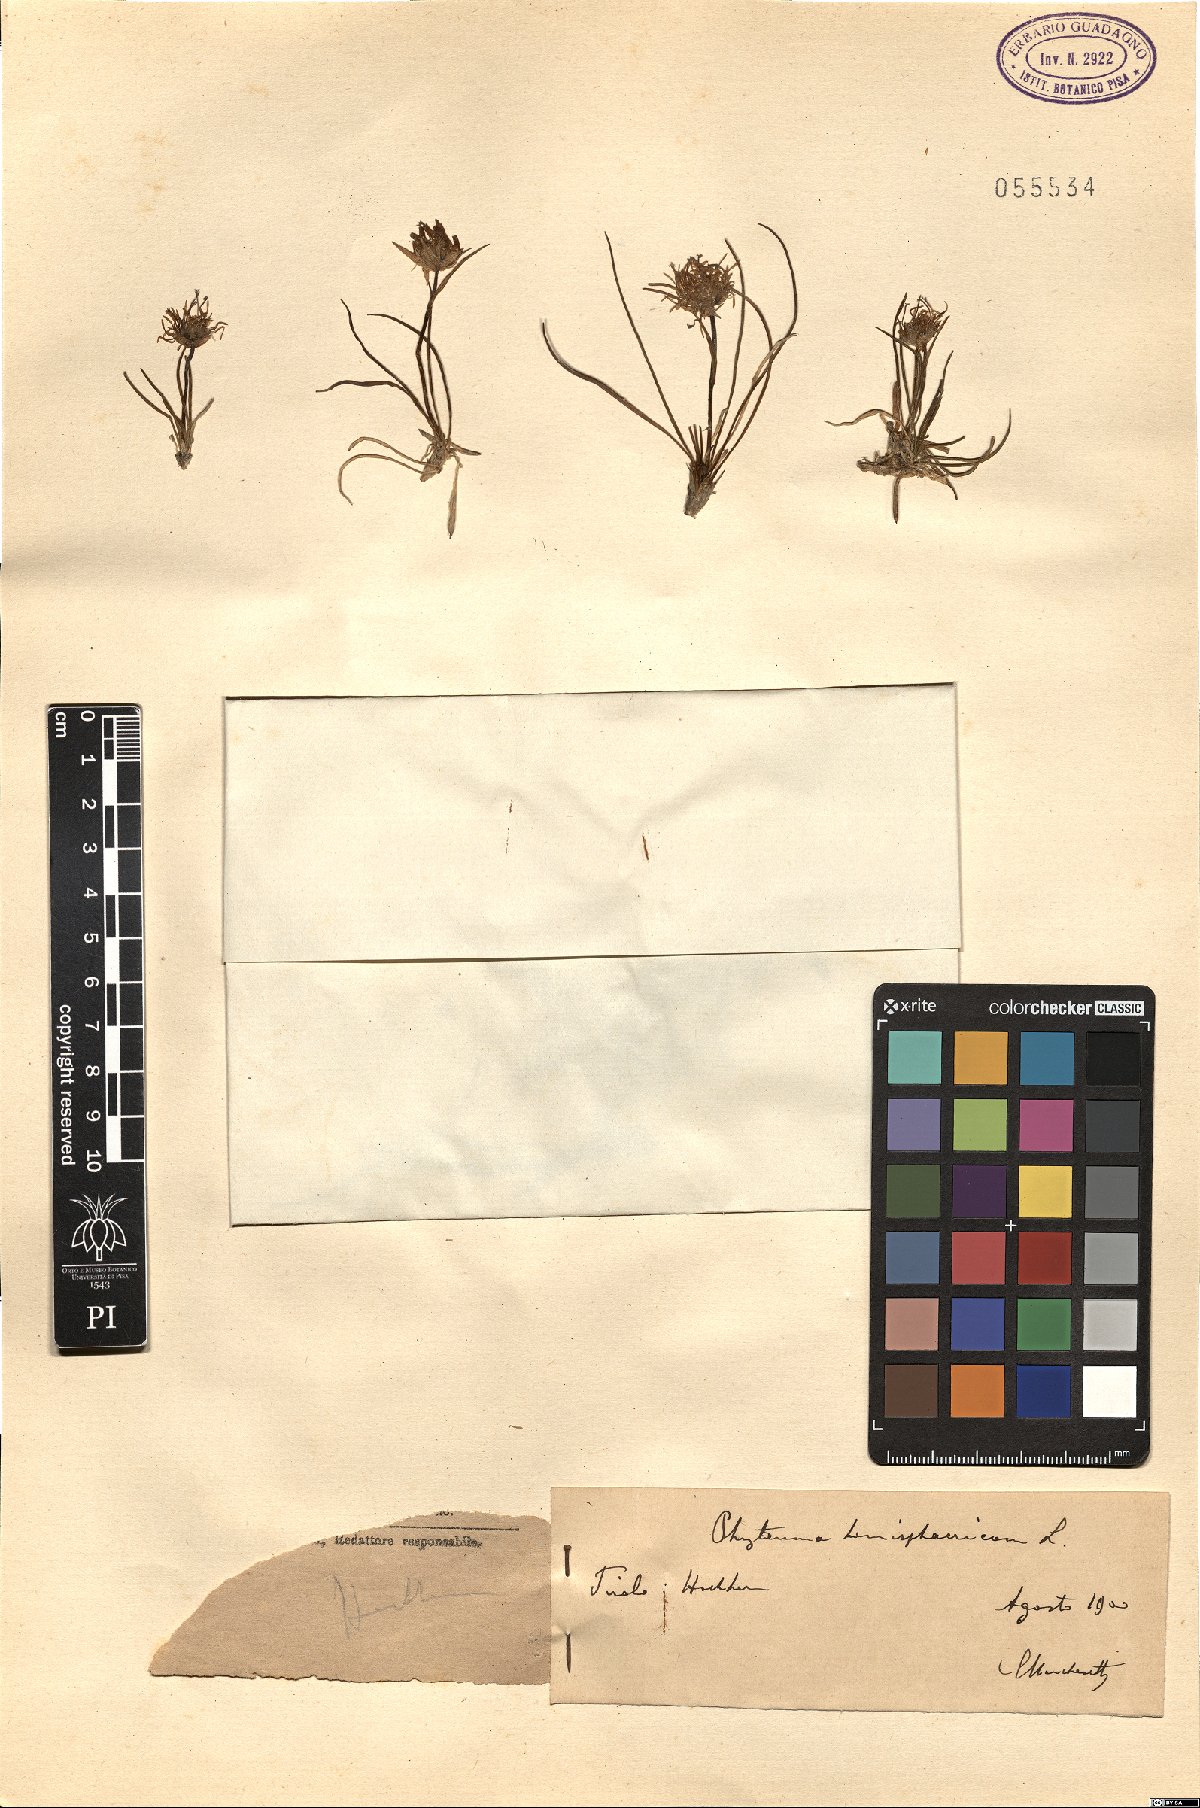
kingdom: Plantae
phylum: Tracheophyta
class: Magnoliopsida
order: Asterales
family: Campanulaceae
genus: Phyteuma
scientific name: Phyteuma hemisphaericum
